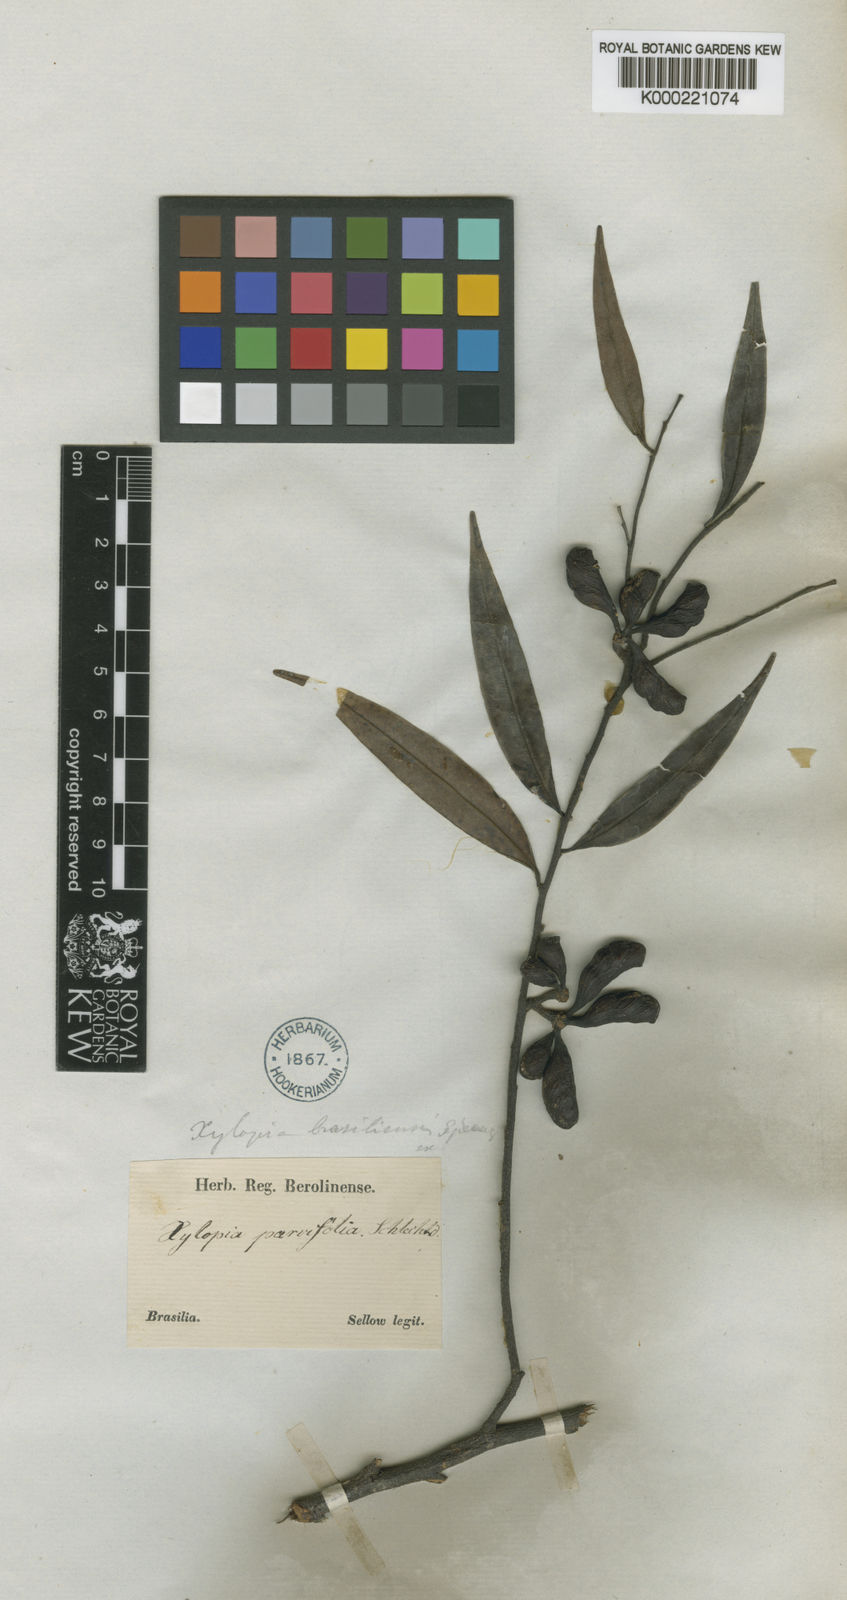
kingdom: Plantae
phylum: Tracheophyta
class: Magnoliopsida
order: Magnoliales
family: Annonaceae
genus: Xylopia
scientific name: Xylopia brasiliensis
